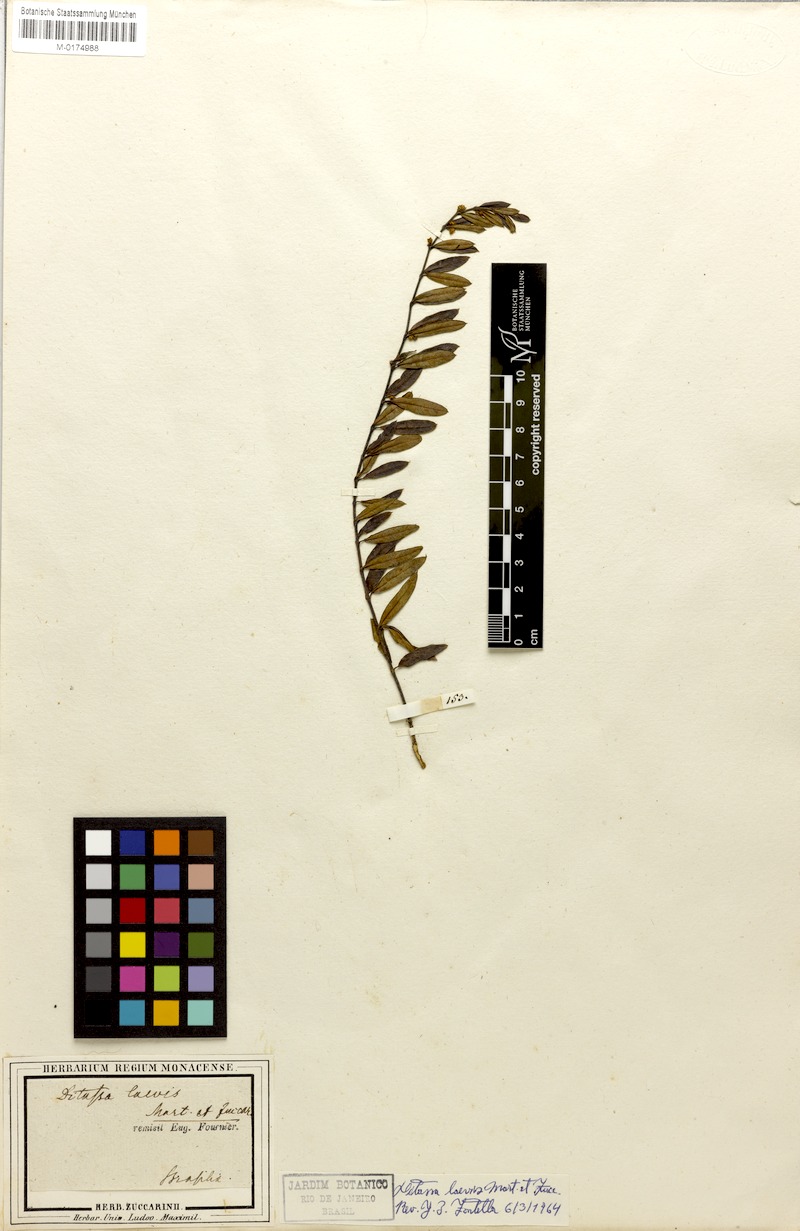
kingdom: Plantae
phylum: Tracheophyta
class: Magnoliopsida
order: Gentianales
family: Apocynaceae
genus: Ditassa
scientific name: Ditassa laevis
